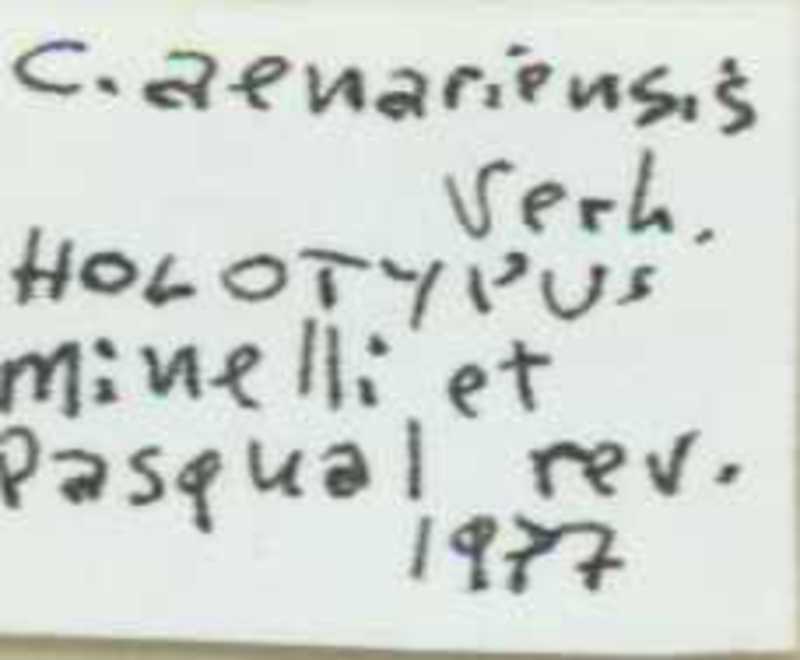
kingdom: Animalia
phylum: Arthropoda
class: Chilopoda
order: Scolopendromorpha
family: Cryptopidae
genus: Cryptops
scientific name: Cryptops hortensis
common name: Centipede
